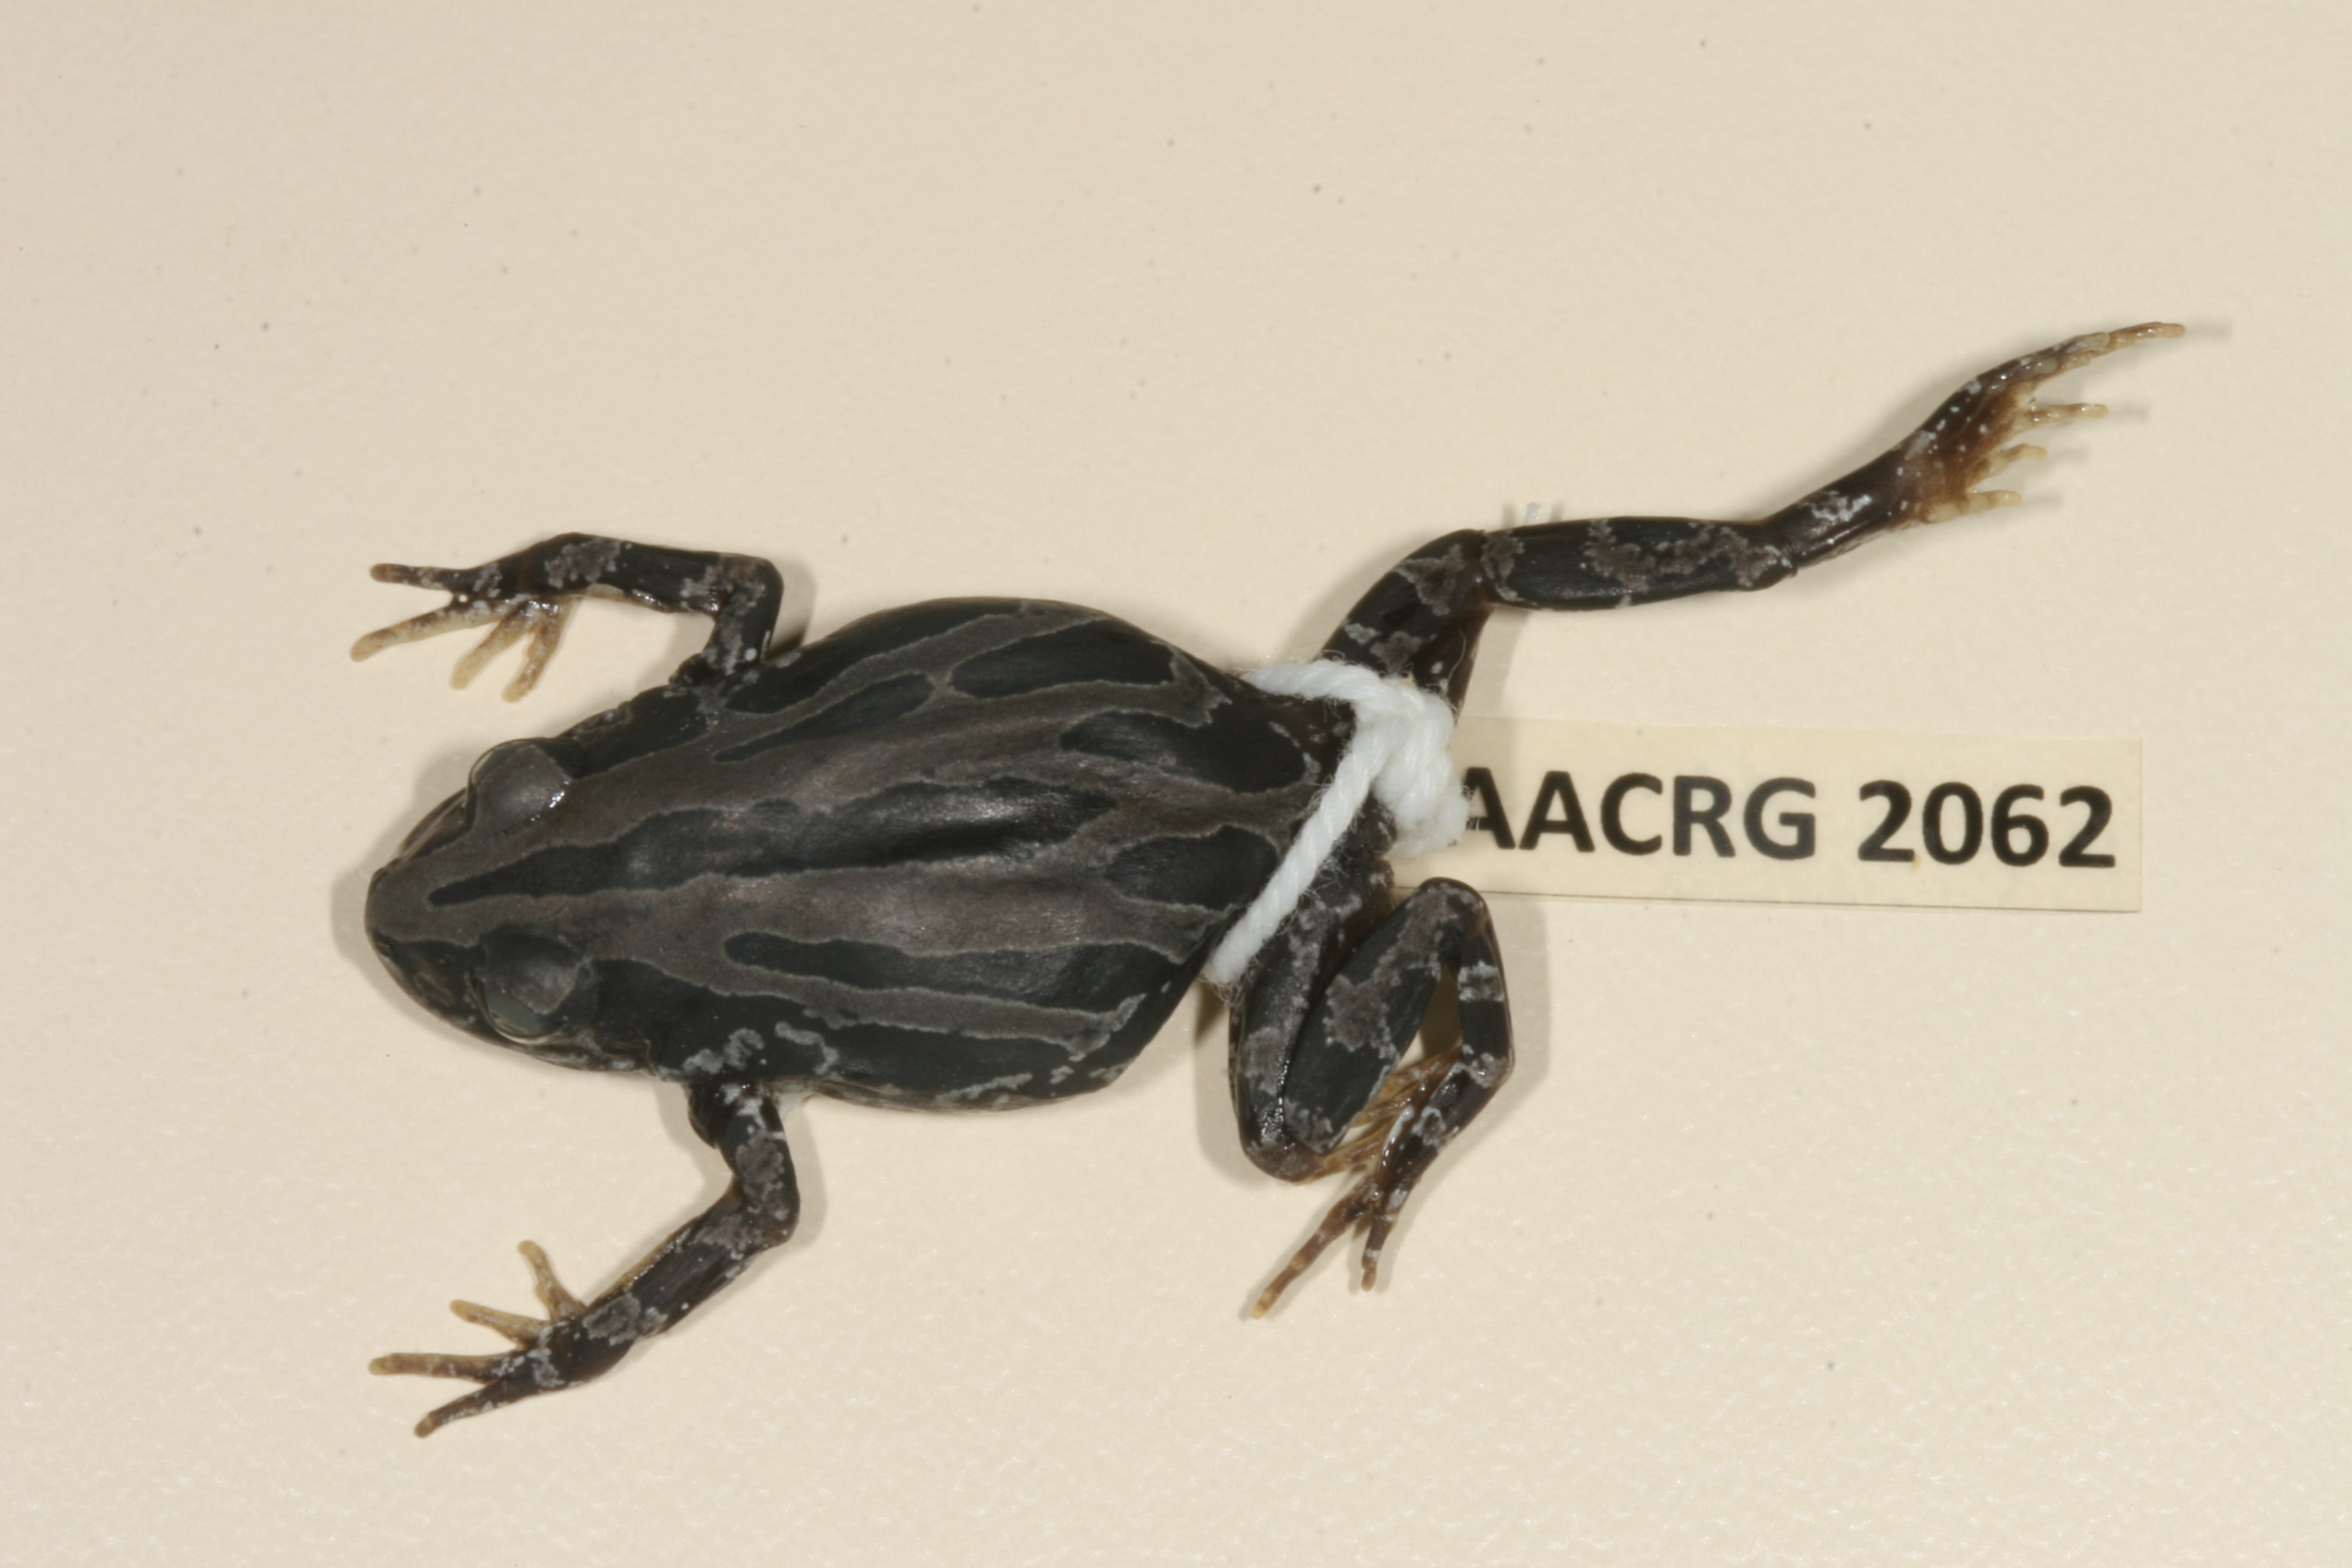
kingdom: Animalia
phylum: Chordata
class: Amphibia
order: Anura
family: Hyperoliidae
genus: Kassina
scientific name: Kassina senegalensis
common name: Senegal land frog
